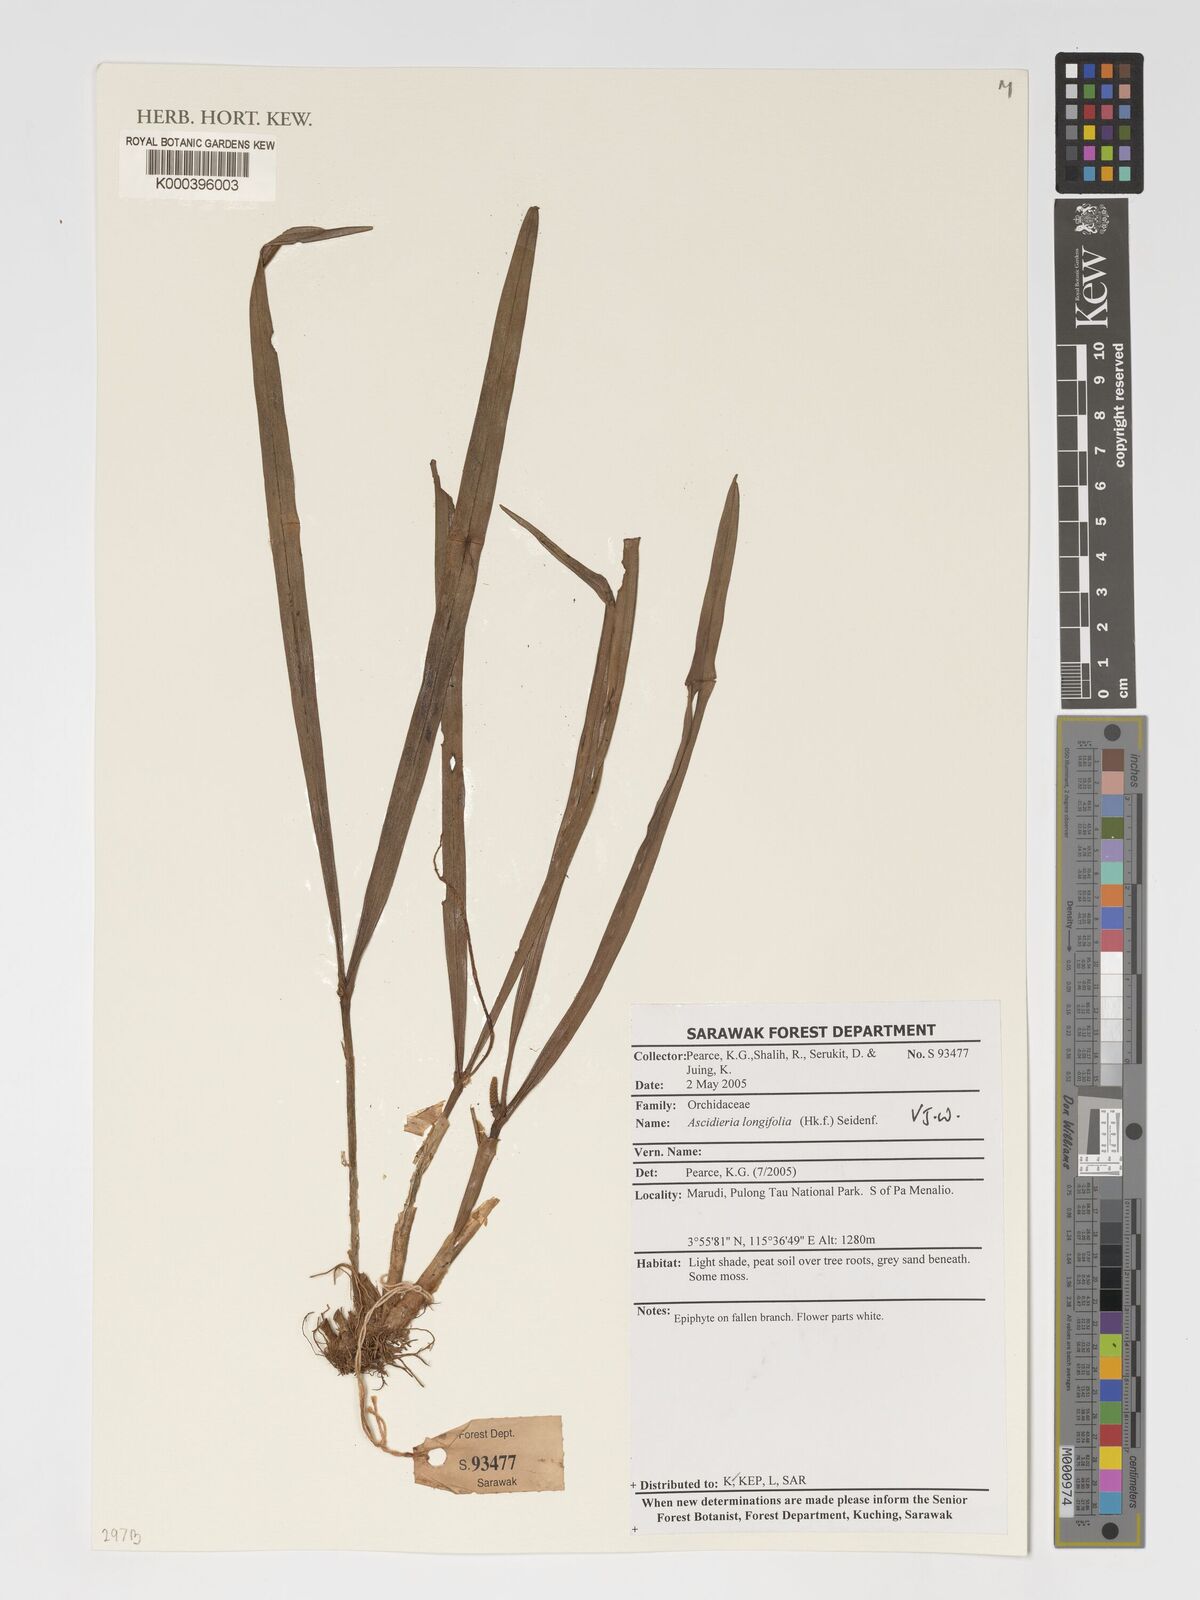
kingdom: Plantae
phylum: Tracheophyta
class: Liliopsida
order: Asparagales
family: Orchidaceae
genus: Ascidieria
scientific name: Ascidieria longifolia
